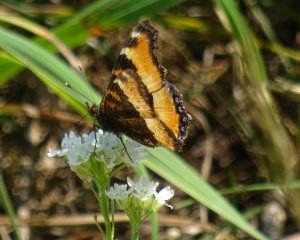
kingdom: Animalia
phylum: Arthropoda
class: Insecta
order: Lepidoptera
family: Nymphalidae
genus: Aglais
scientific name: Aglais milberti
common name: Milbert's Tortoiseshell
